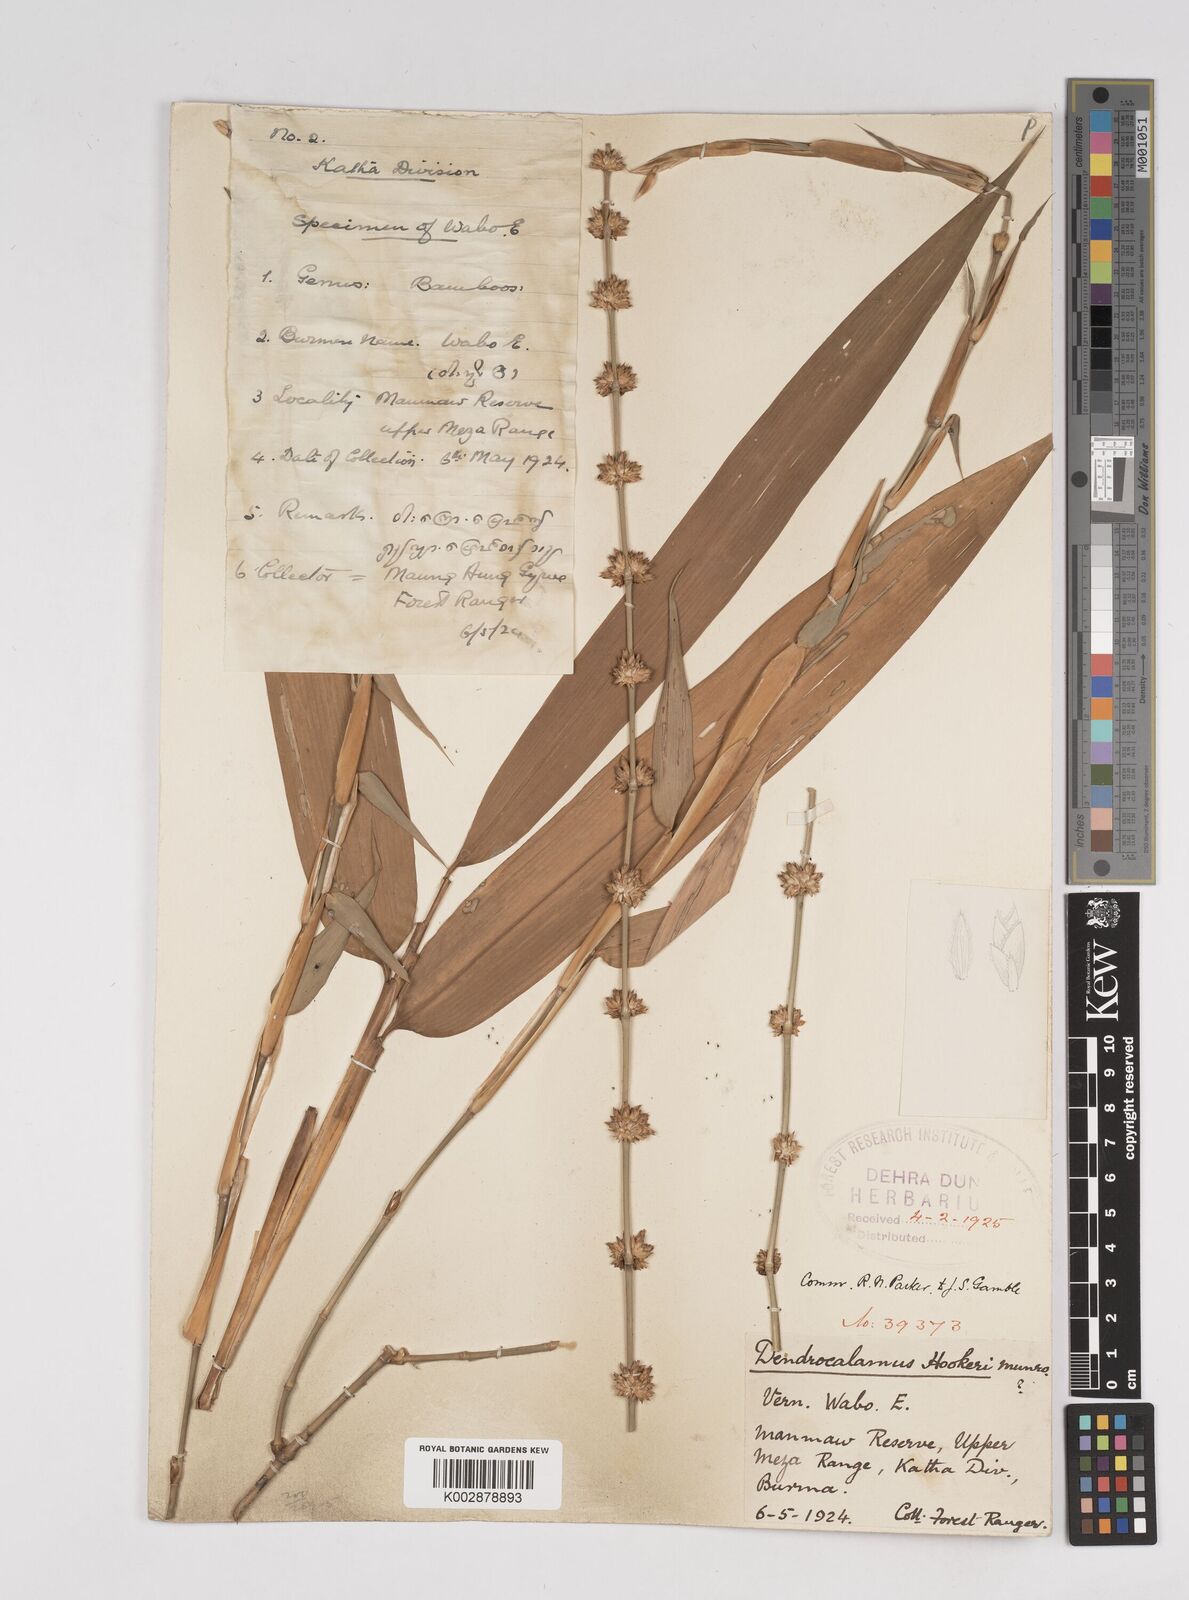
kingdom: Plantae
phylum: Tracheophyta
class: Liliopsida
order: Poales
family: Poaceae
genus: Dendrocalamus
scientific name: Dendrocalamus hookeri
